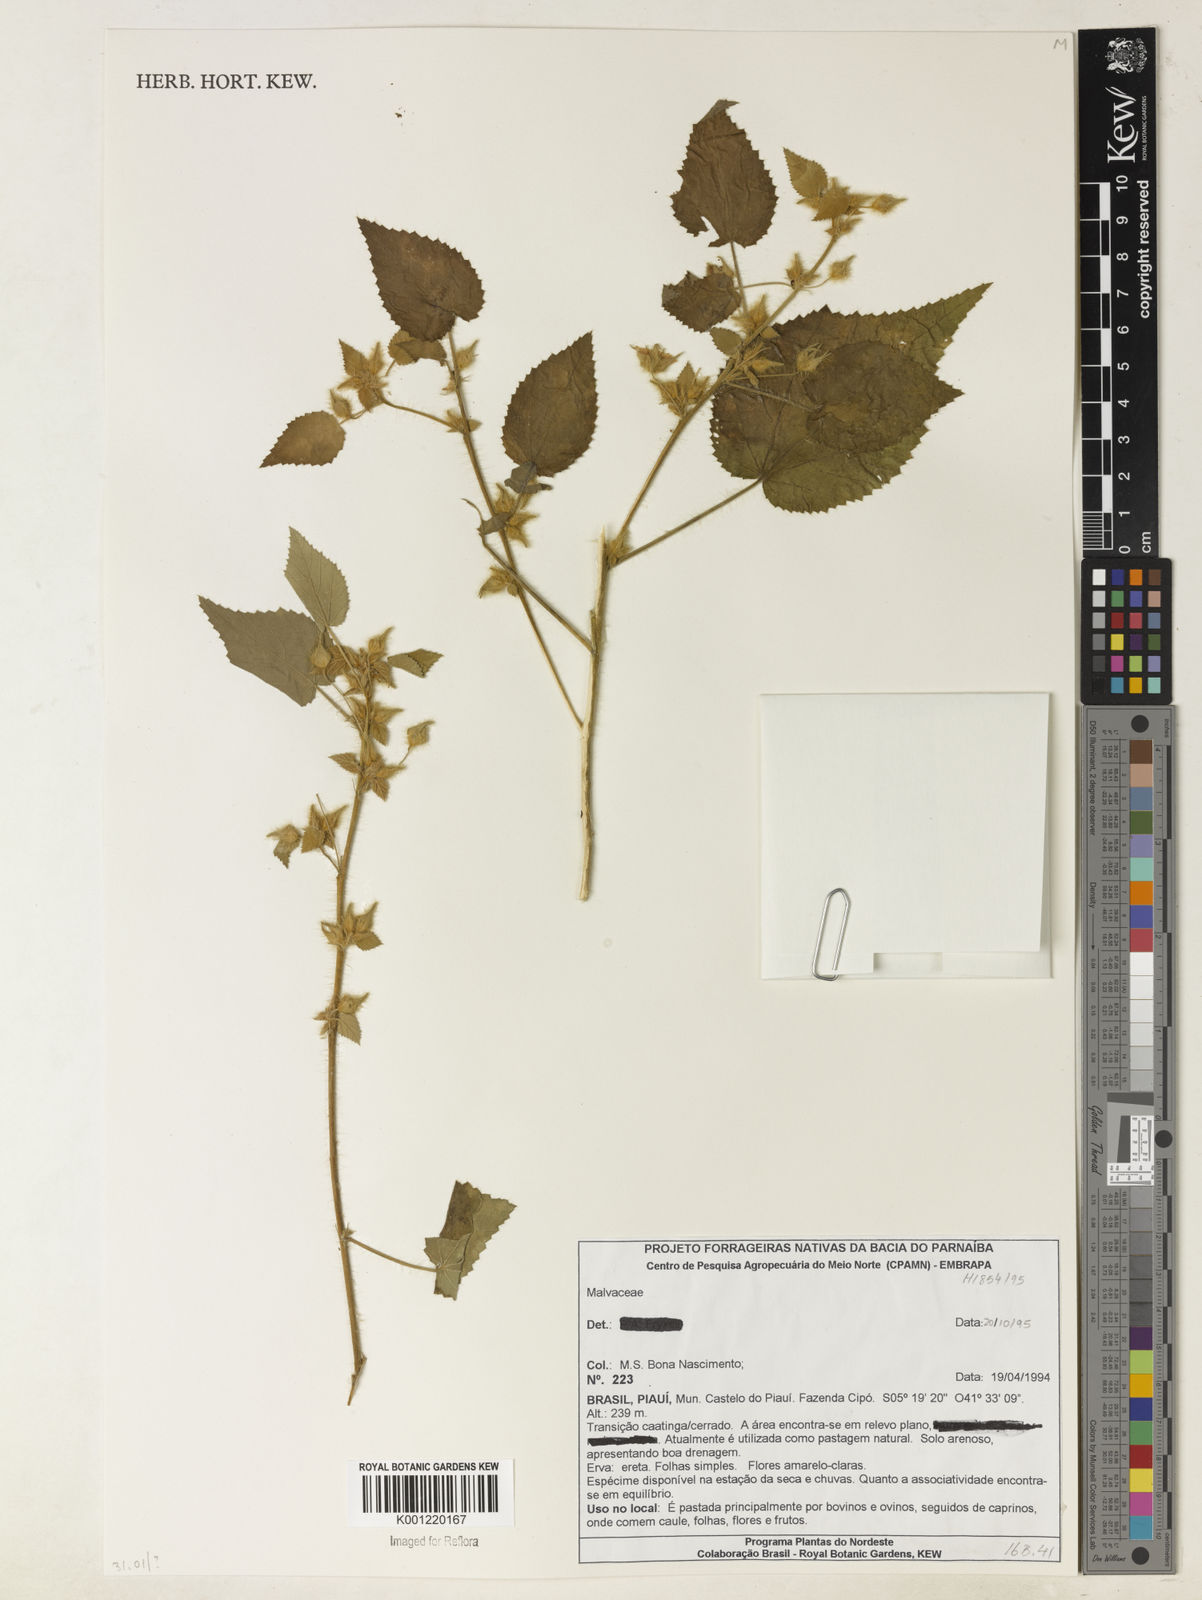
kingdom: Plantae
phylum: Tracheophyta
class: Magnoliopsida
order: Malvales
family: Malvaceae
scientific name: Malvaceae
